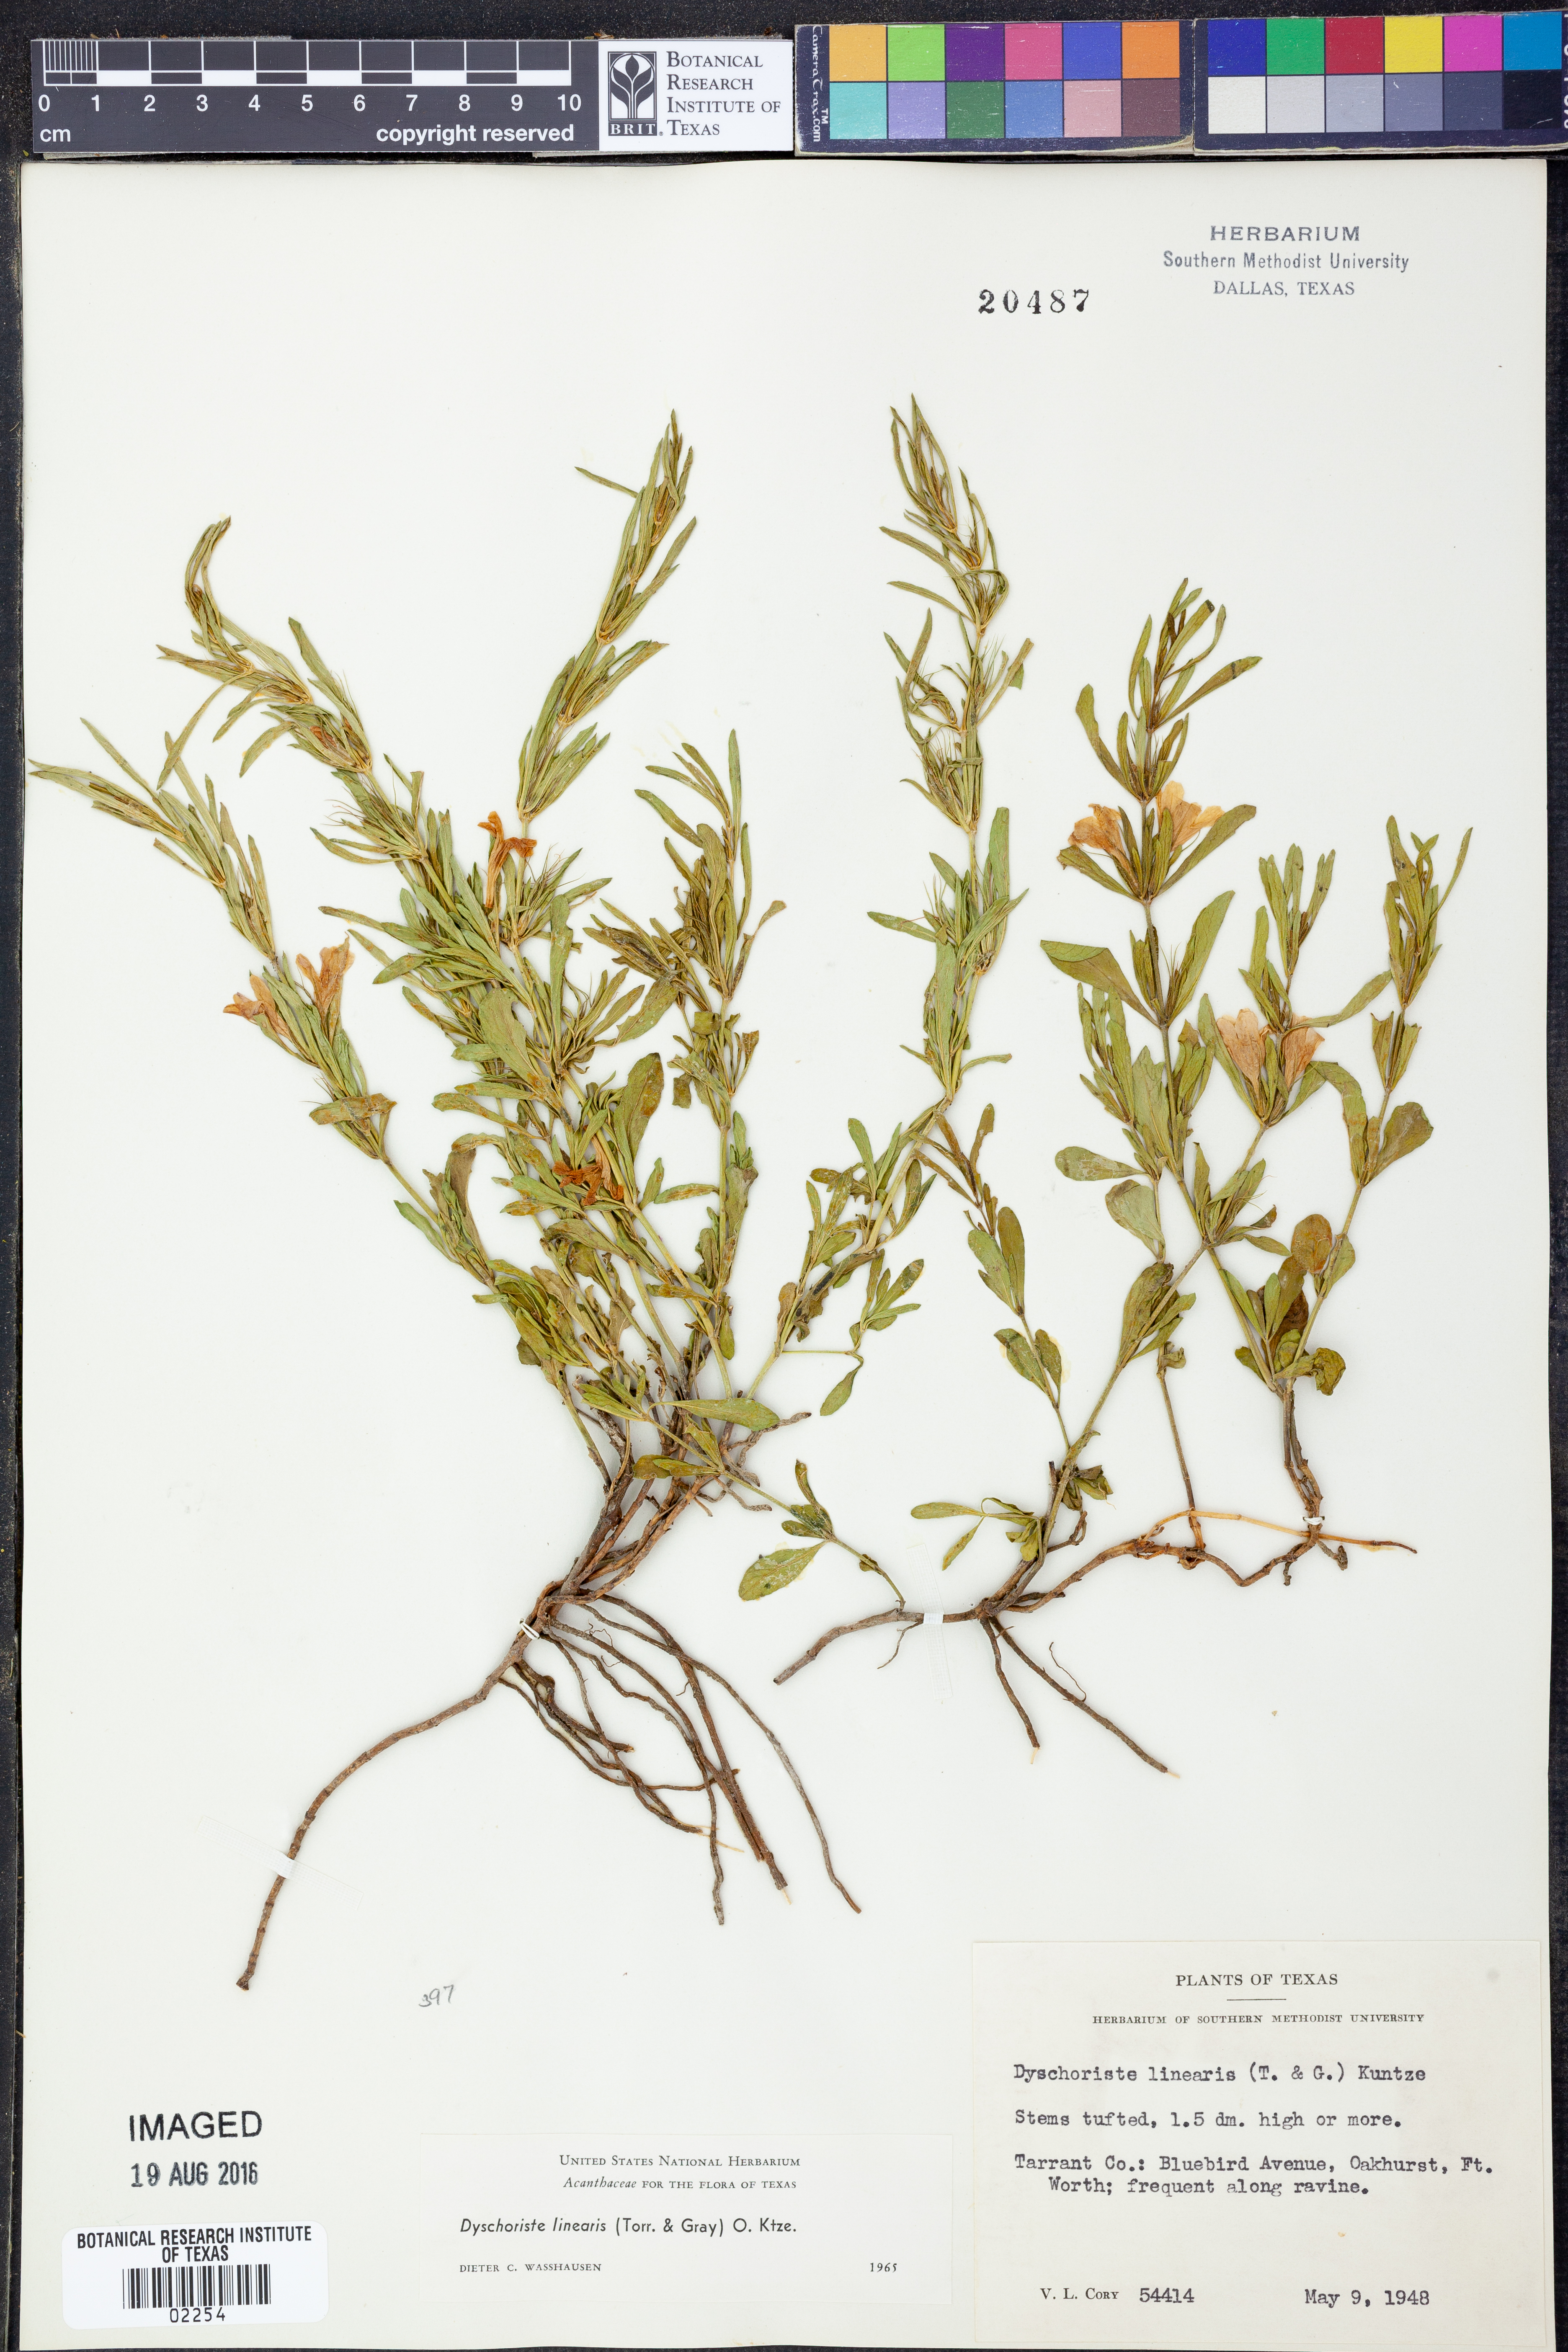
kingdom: Plantae
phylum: Tracheophyta
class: Magnoliopsida
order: Lamiales
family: Acanthaceae
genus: Dyschoriste
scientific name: Dyschoriste linearis
